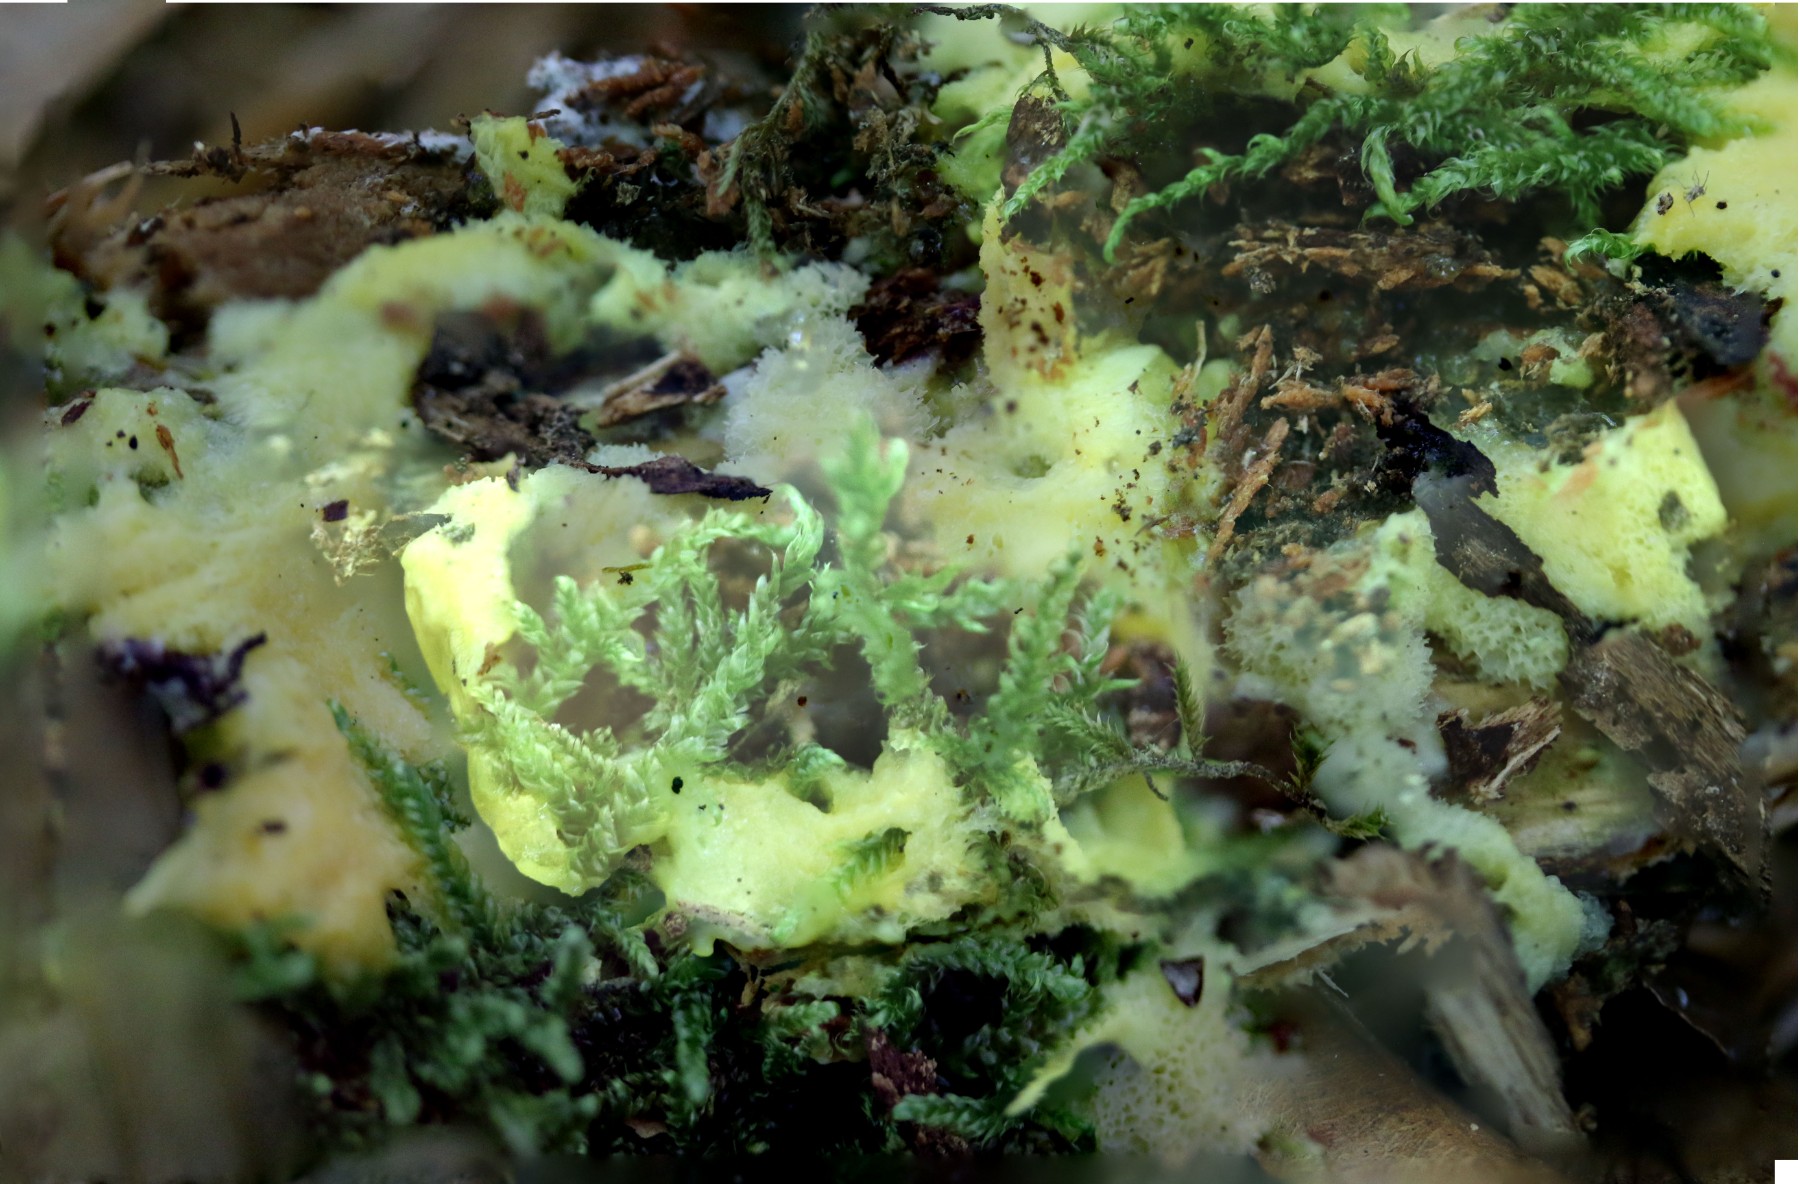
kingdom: Protozoa
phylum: Mycetozoa
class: Protosteliomycetes
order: Ceratiomyxales
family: Ceratiomyxaceae
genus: Ceratiomyxa
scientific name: Ceratiomyxa fruticulosa
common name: Honeycomb coral slime mold
